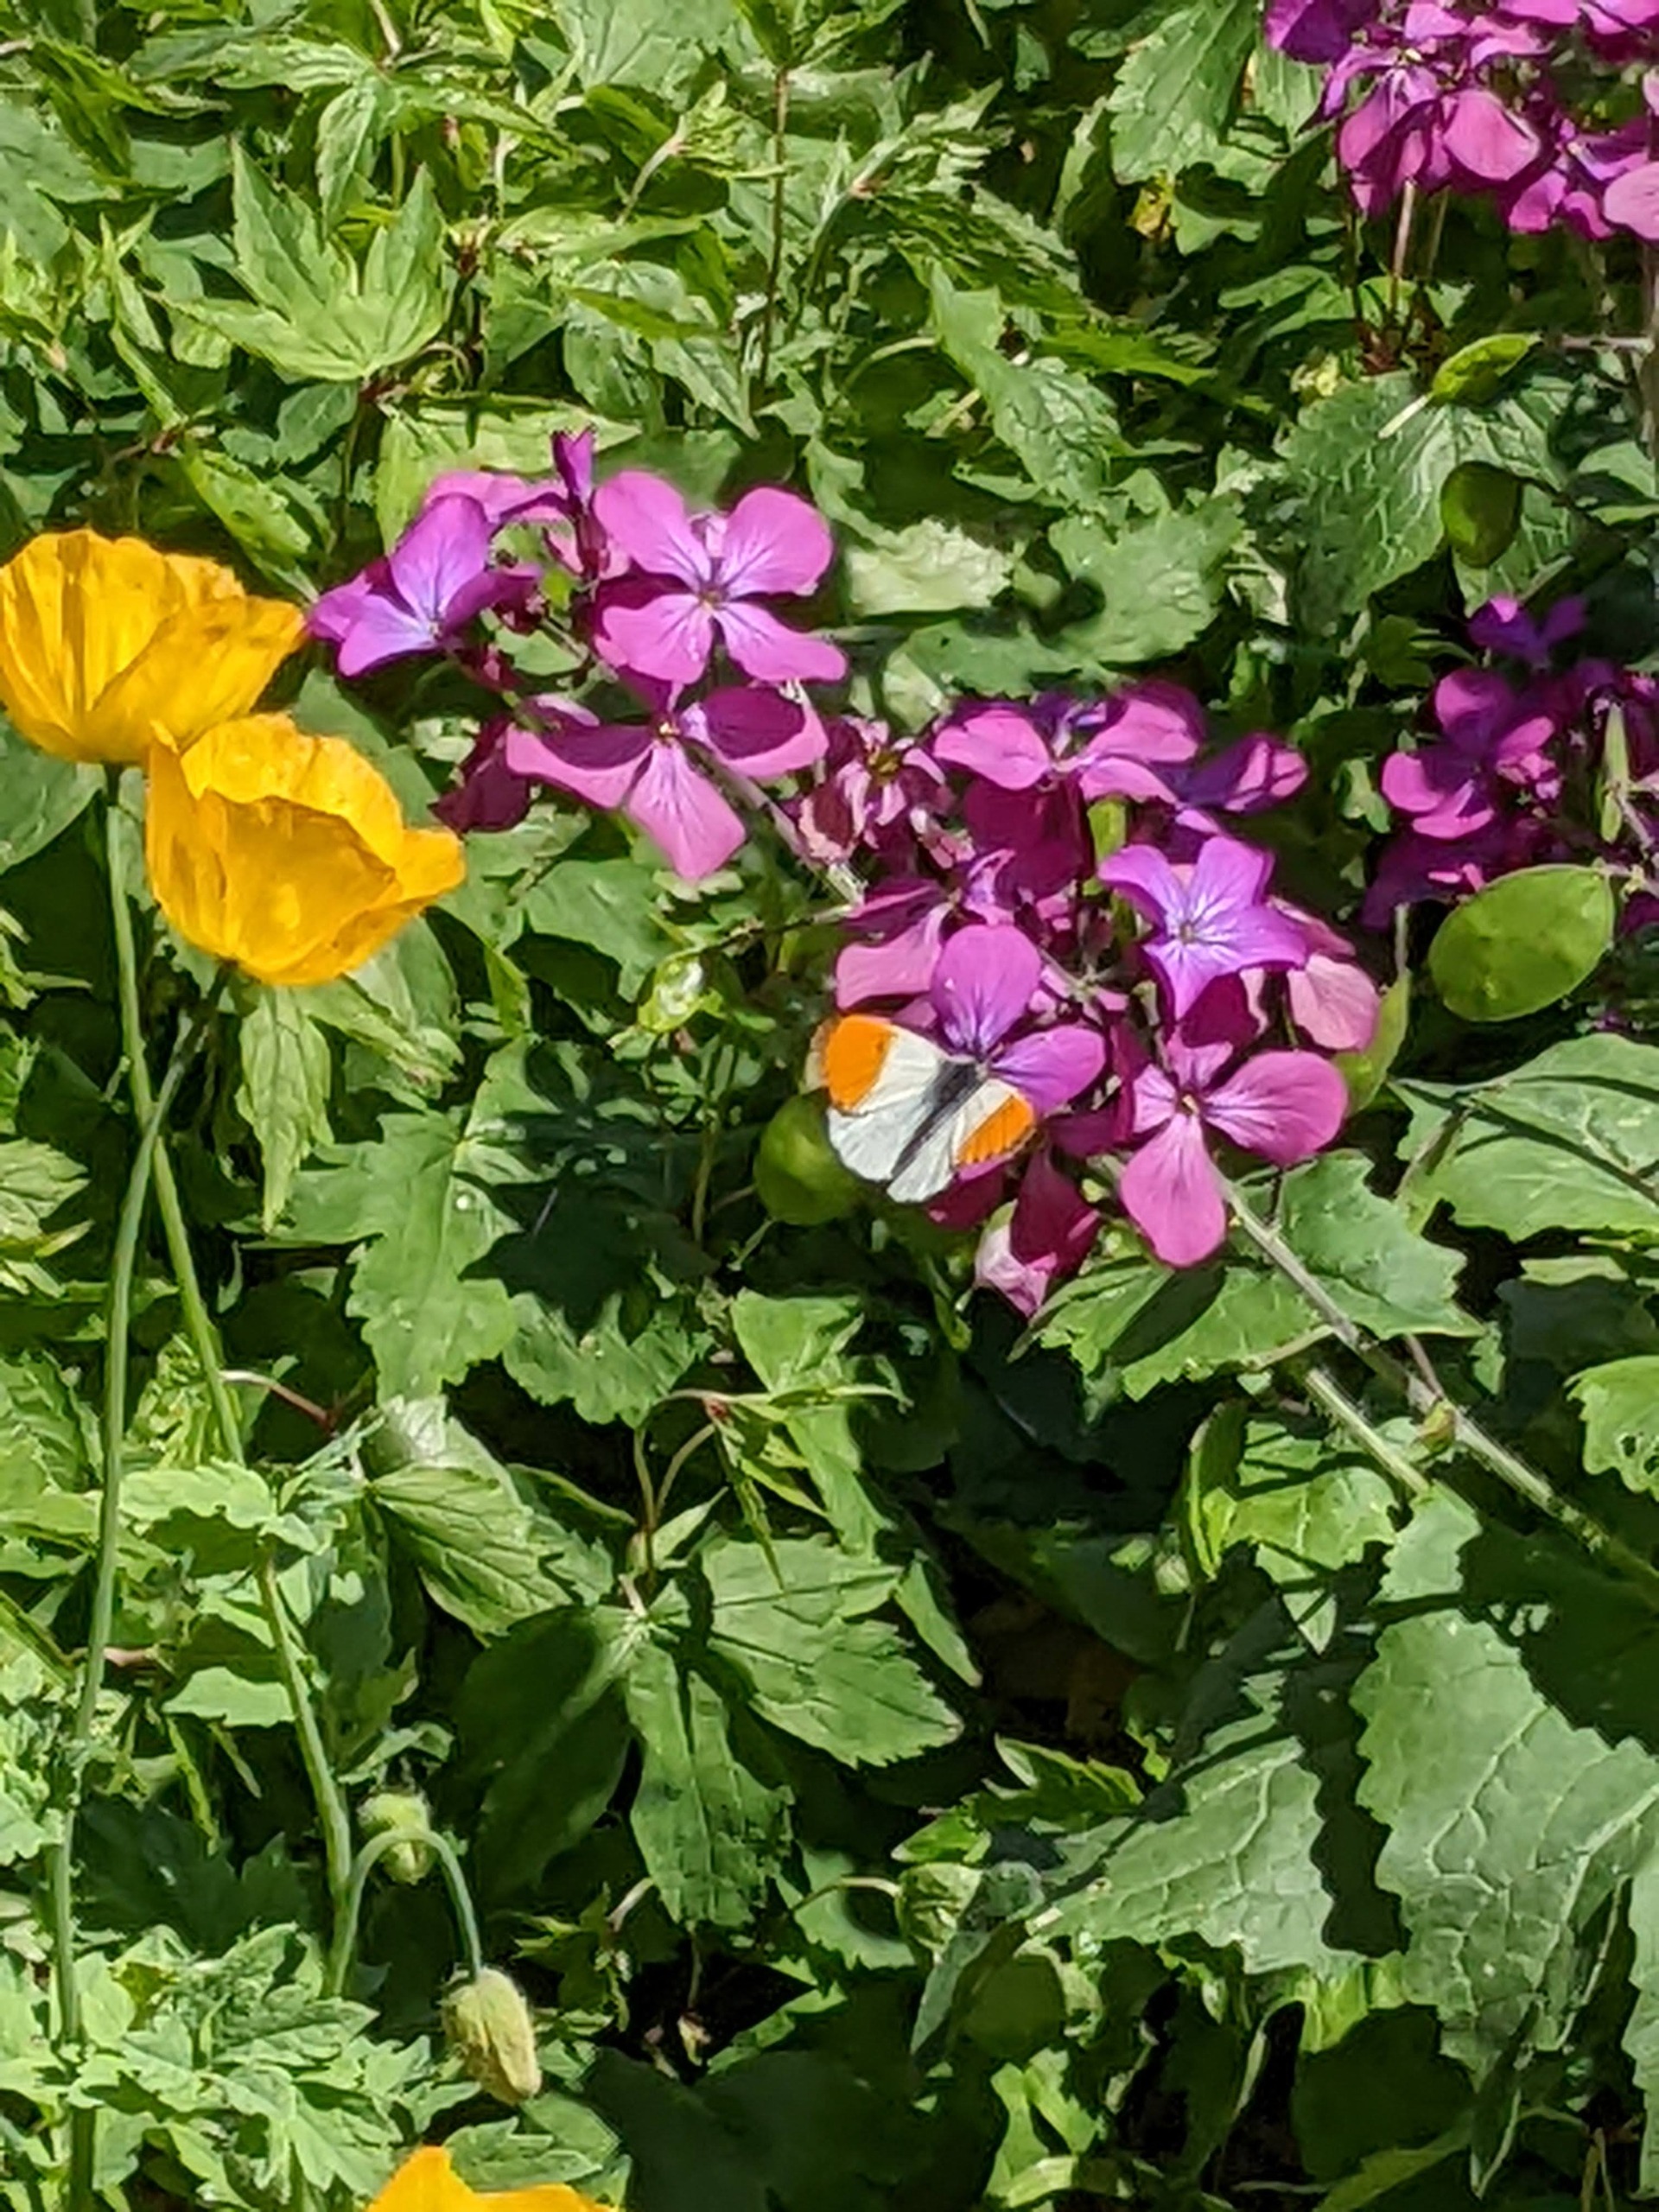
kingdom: Animalia
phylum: Arthropoda
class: Insecta
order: Lepidoptera
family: Pieridae
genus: Anthocharis
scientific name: Anthocharis cardamines
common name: Aurora
